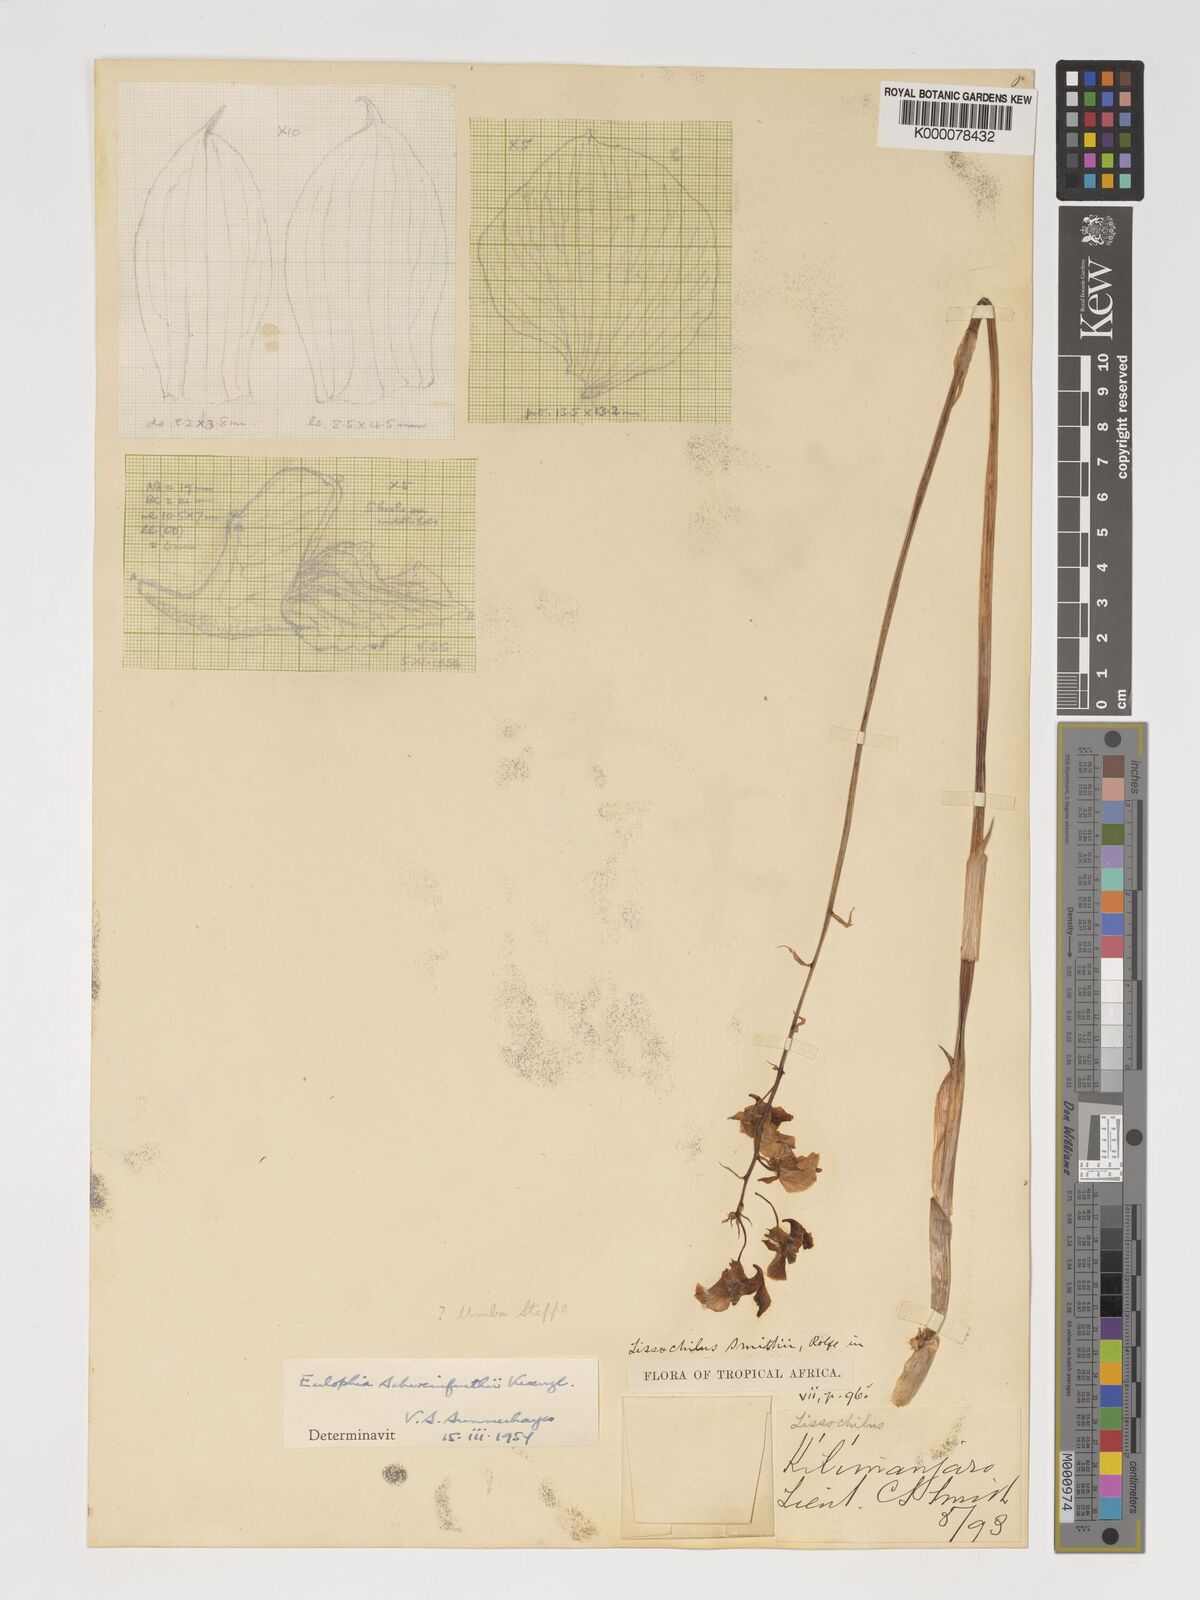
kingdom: Plantae
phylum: Tracheophyta
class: Liliopsida
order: Asparagales
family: Orchidaceae
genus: Eulophia
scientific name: Eulophia schweinfurthii
